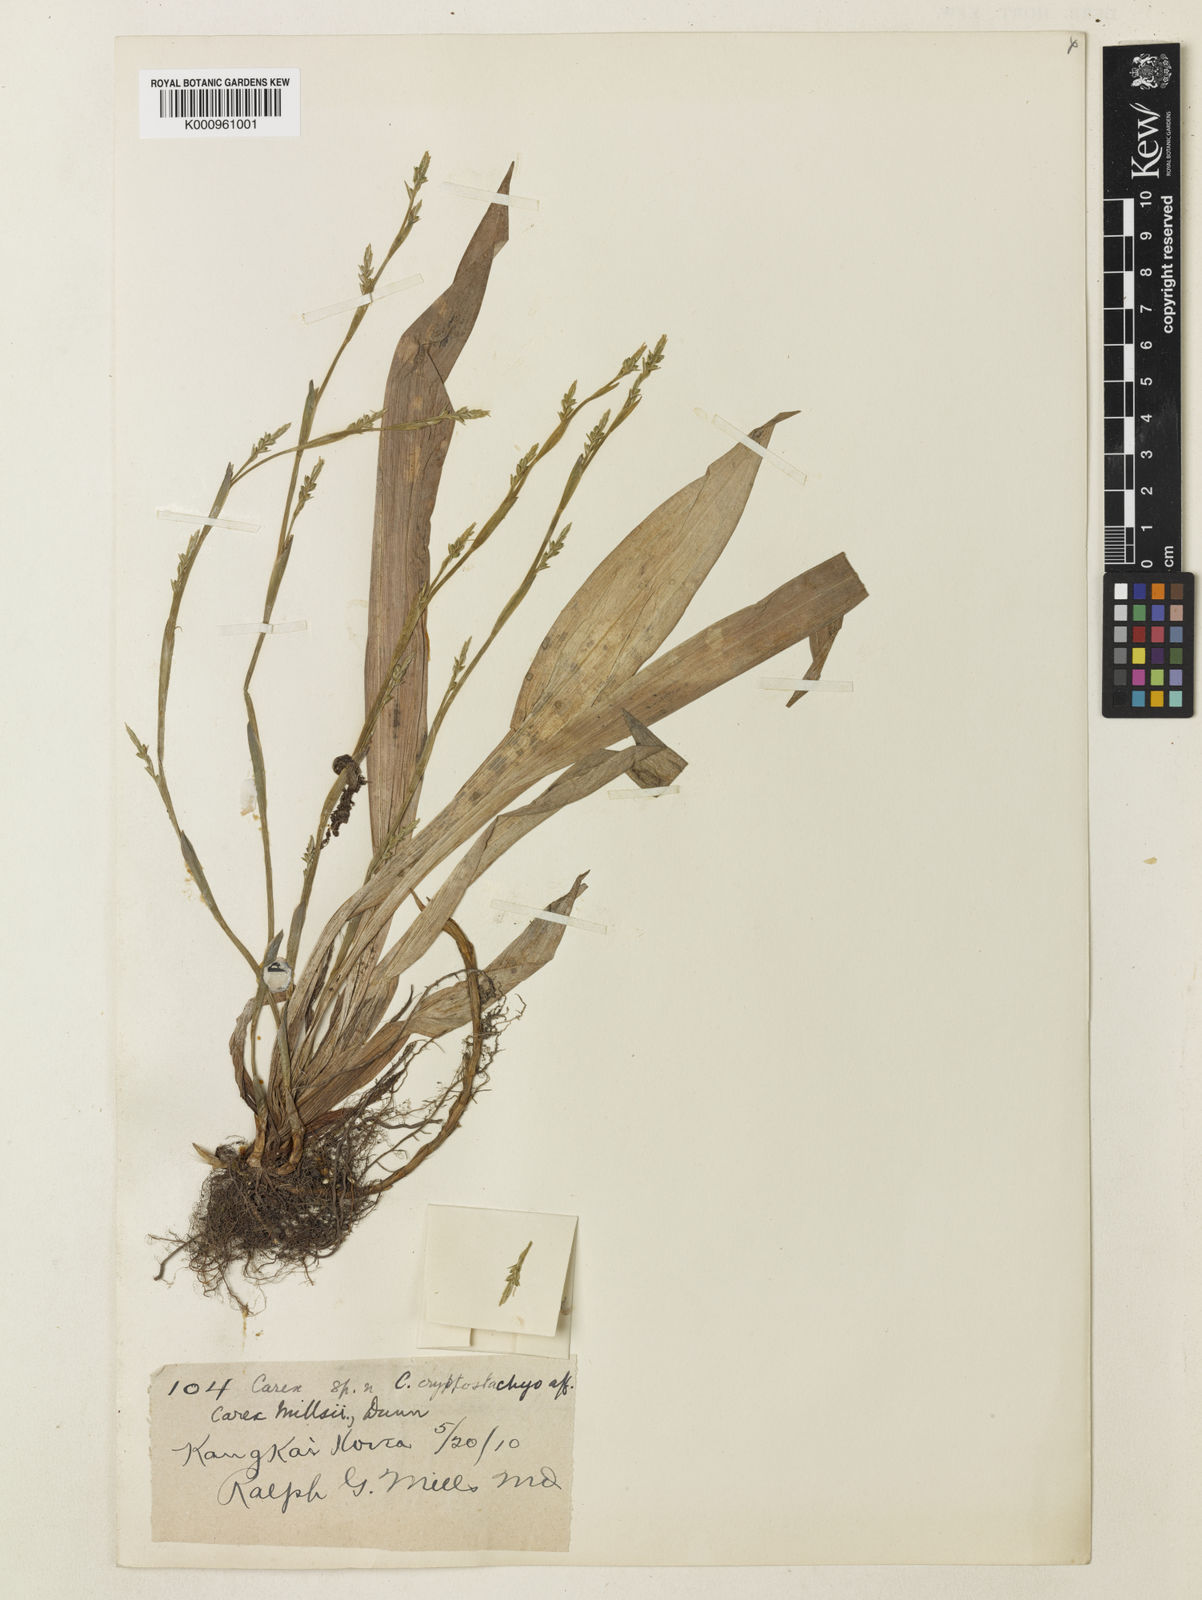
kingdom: Plantae
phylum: Tracheophyta
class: Liliopsida
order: Poales
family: Cyperaceae
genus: Carex
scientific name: Carex millsii
